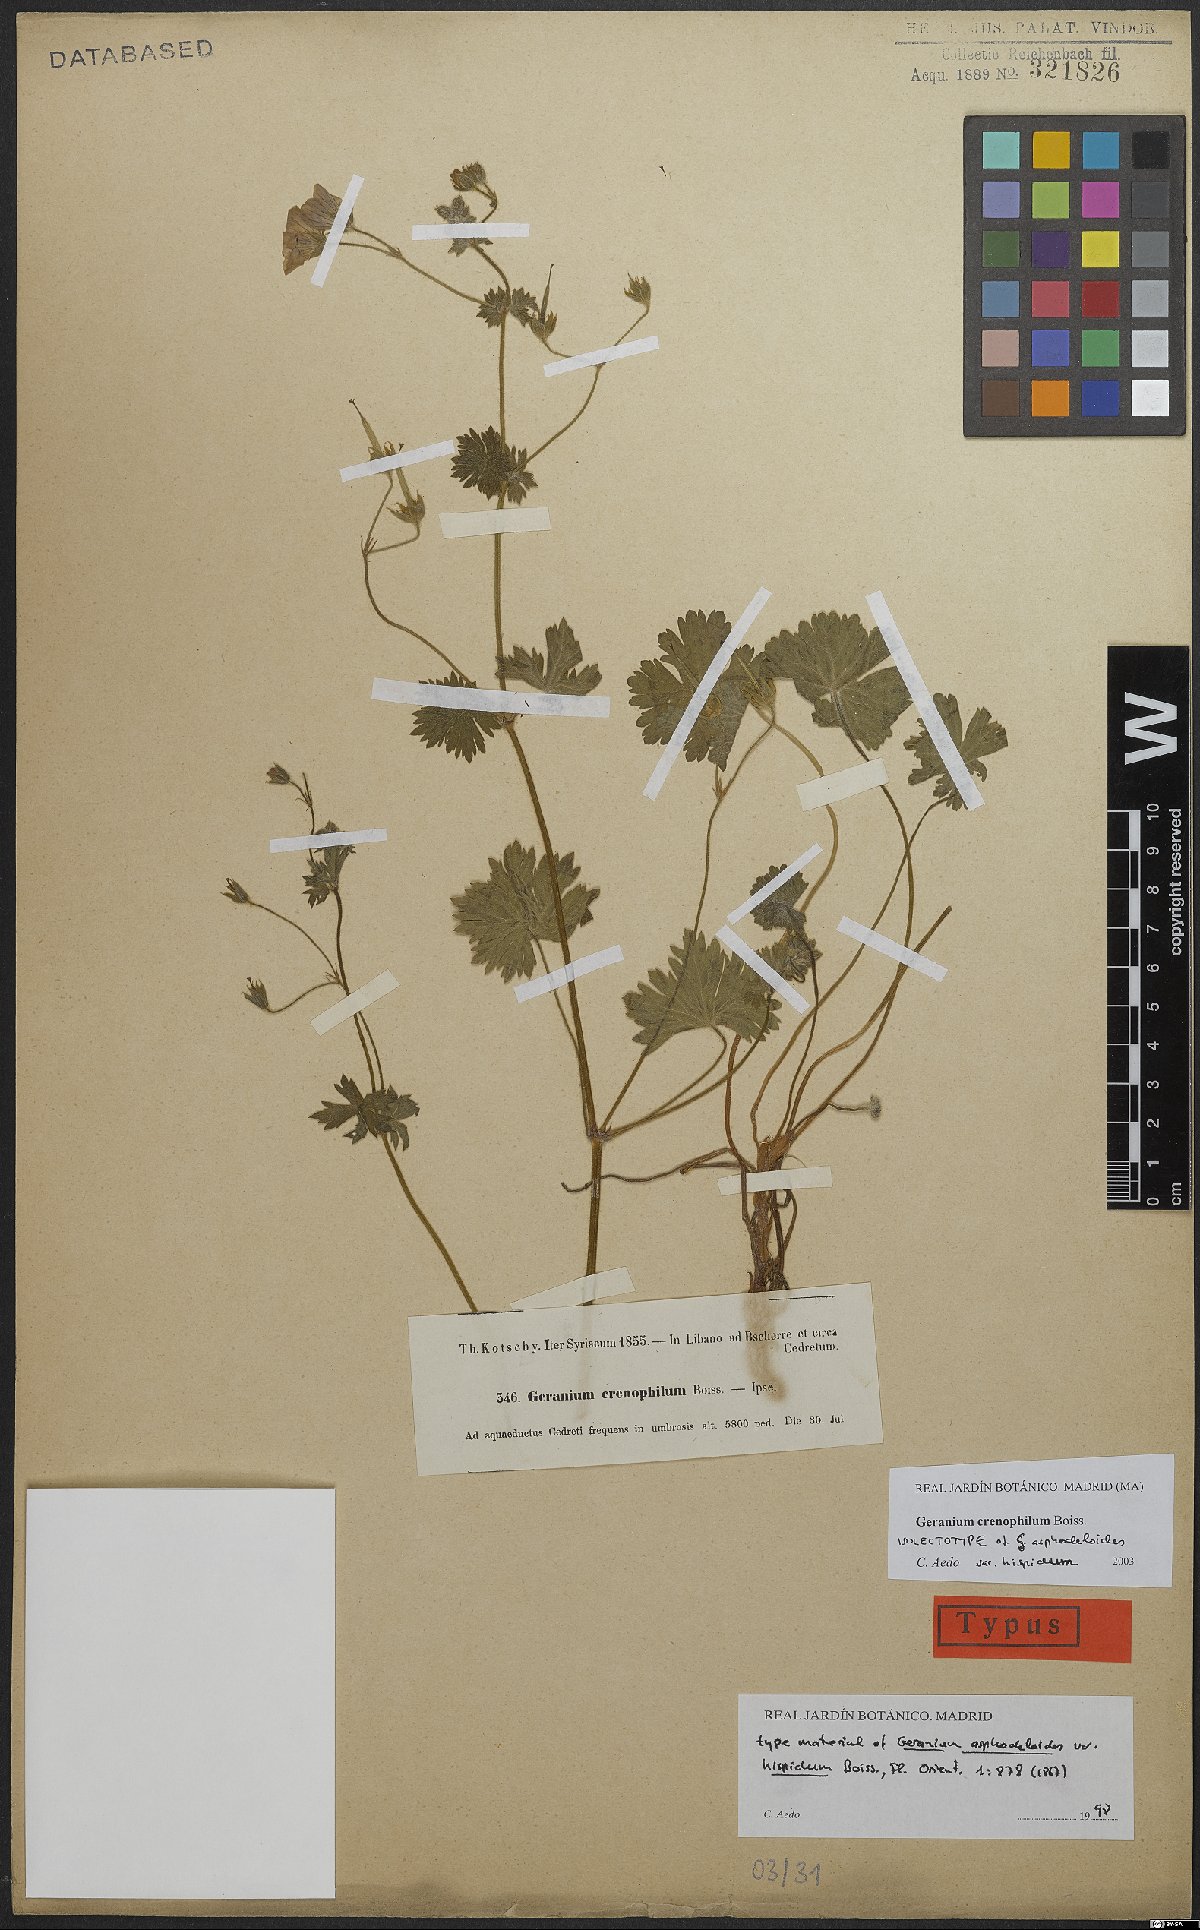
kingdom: Plantae
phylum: Tracheophyta
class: Magnoliopsida
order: Geraniales
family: Geraniaceae
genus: Geranium
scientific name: Geranium crenophilum
